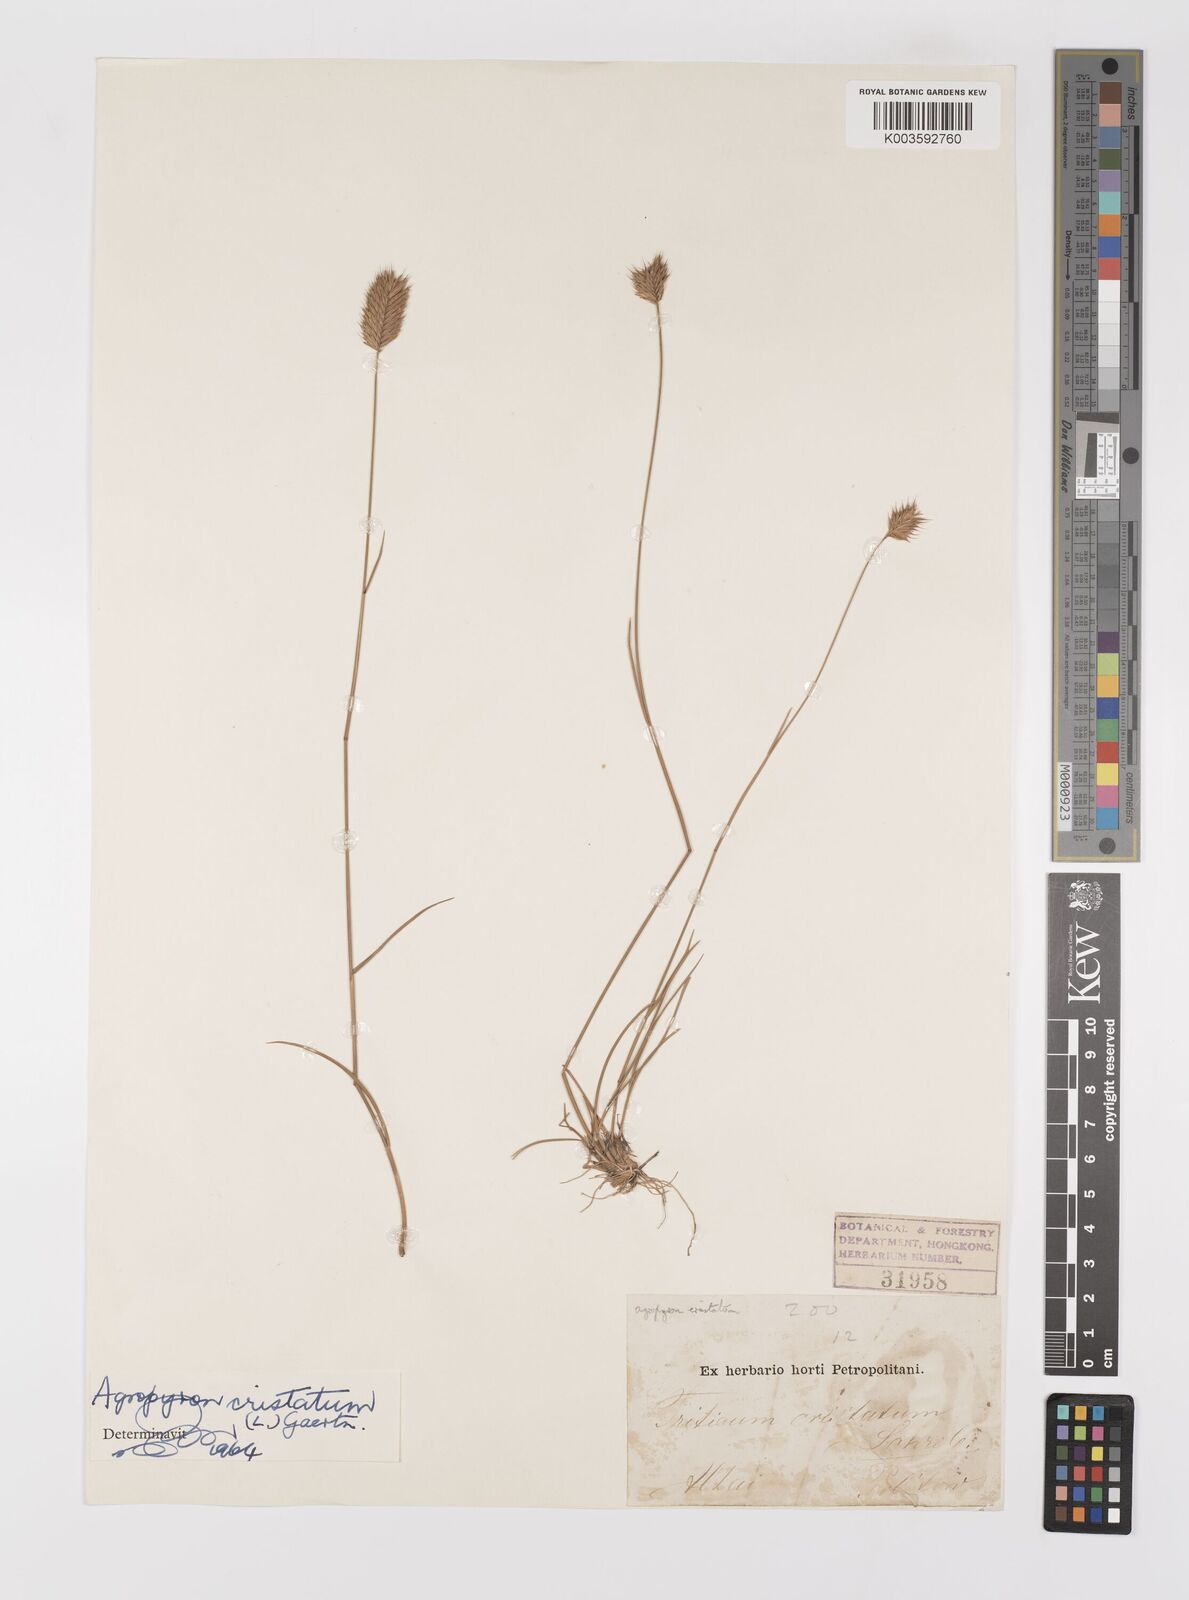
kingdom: Plantae
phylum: Tracheophyta
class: Liliopsida
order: Poales
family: Poaceae
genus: Agropyron
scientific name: Agropyron cristatum
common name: Crested wheatgrass
